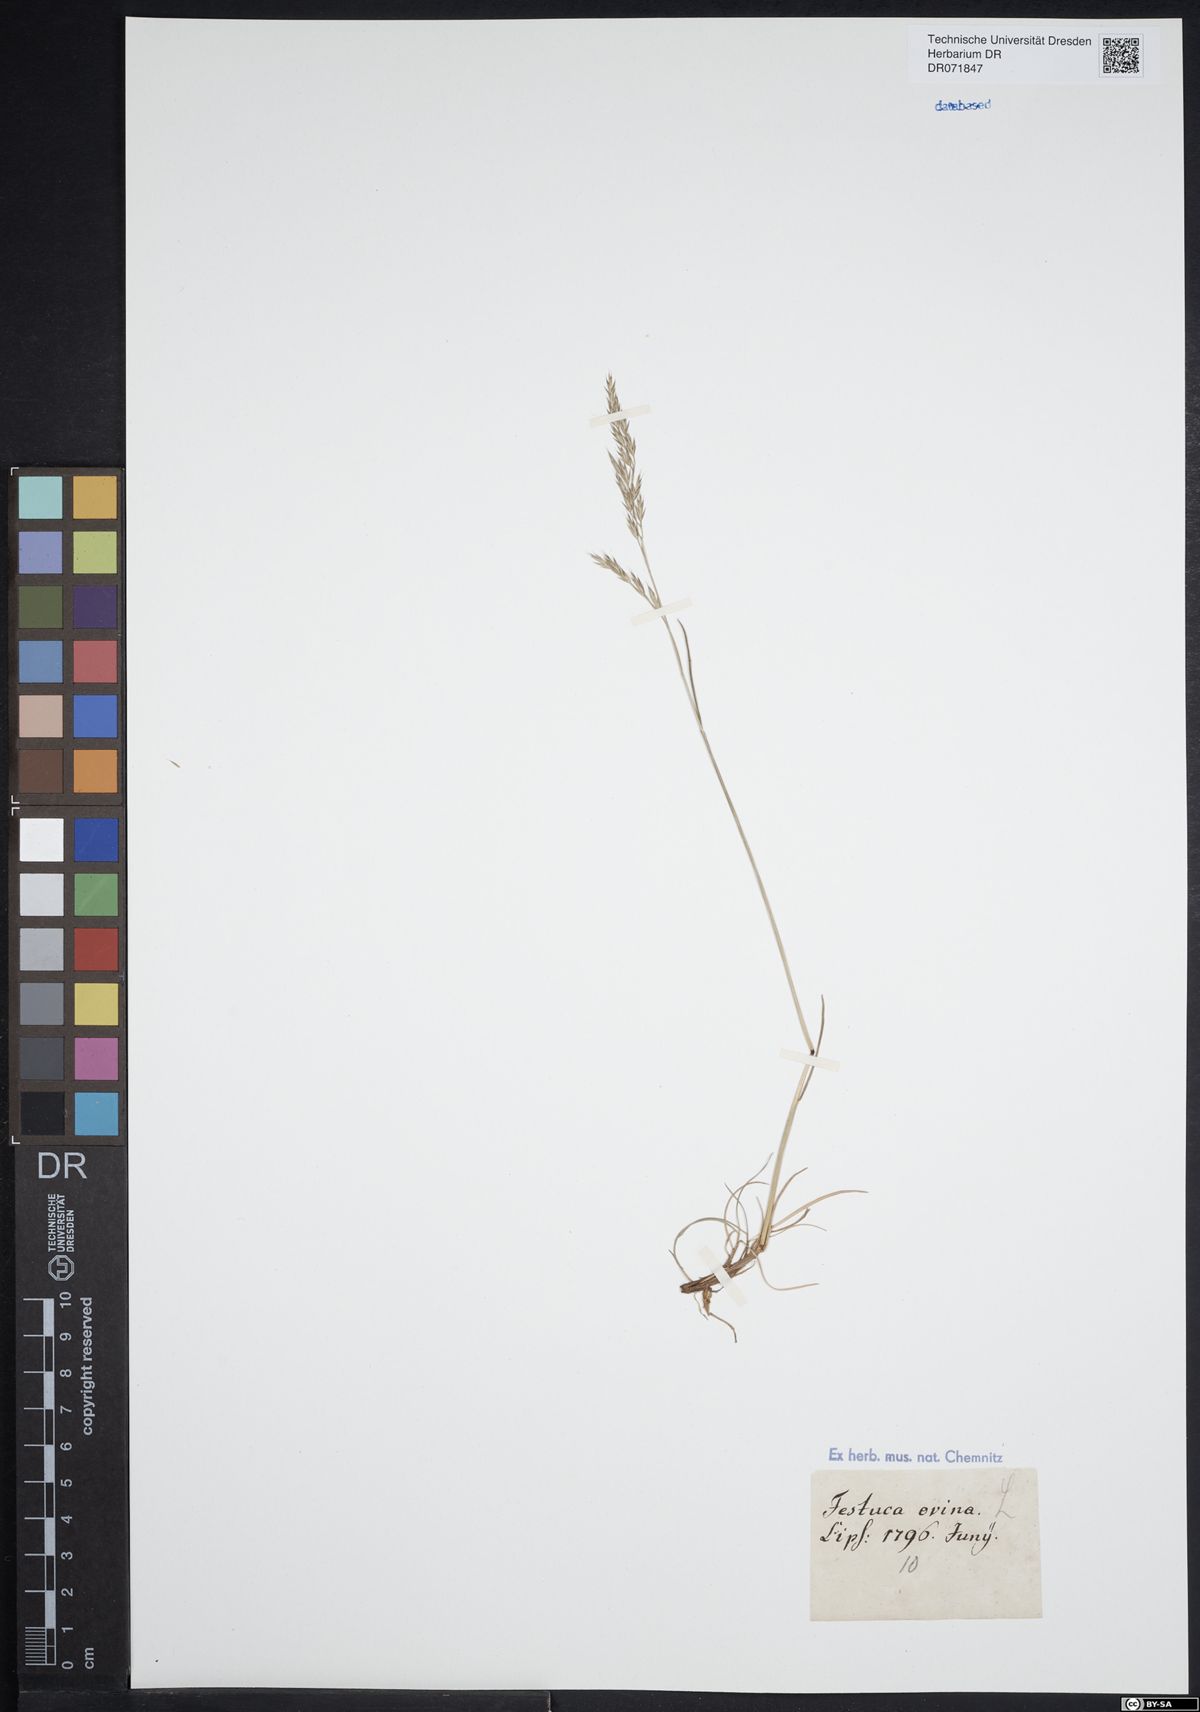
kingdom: Plantae
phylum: Tracheophyta
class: Liliopsida
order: Poales
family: Poaceae
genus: Festuca
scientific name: Festuca ovina
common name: Sheep fescue
